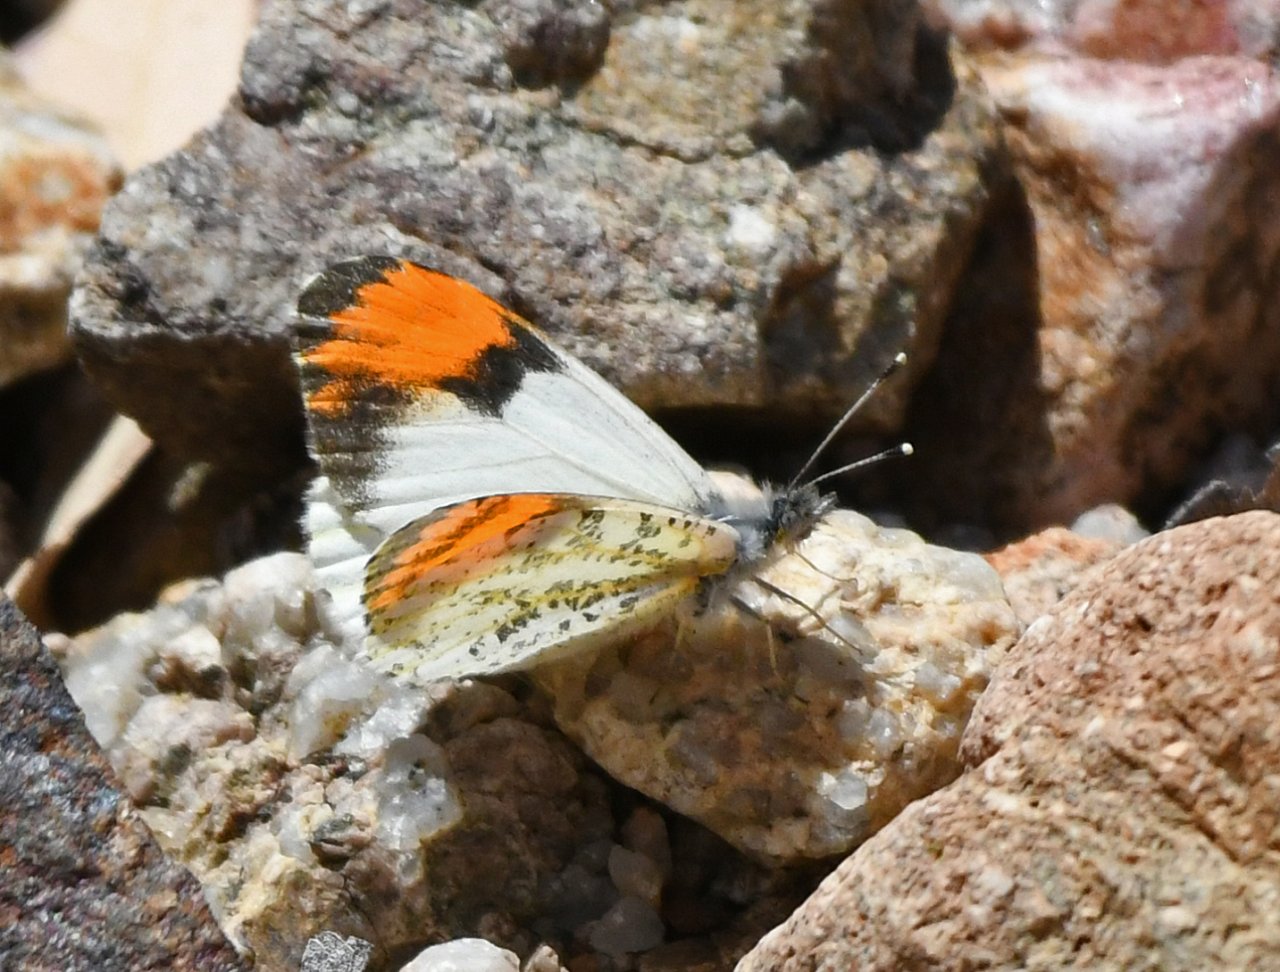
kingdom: Animalia
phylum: Arthropoda
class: Insecta
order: Lepidoptera
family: Pieridae
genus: Anthocharis
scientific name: Anthocharis sara
